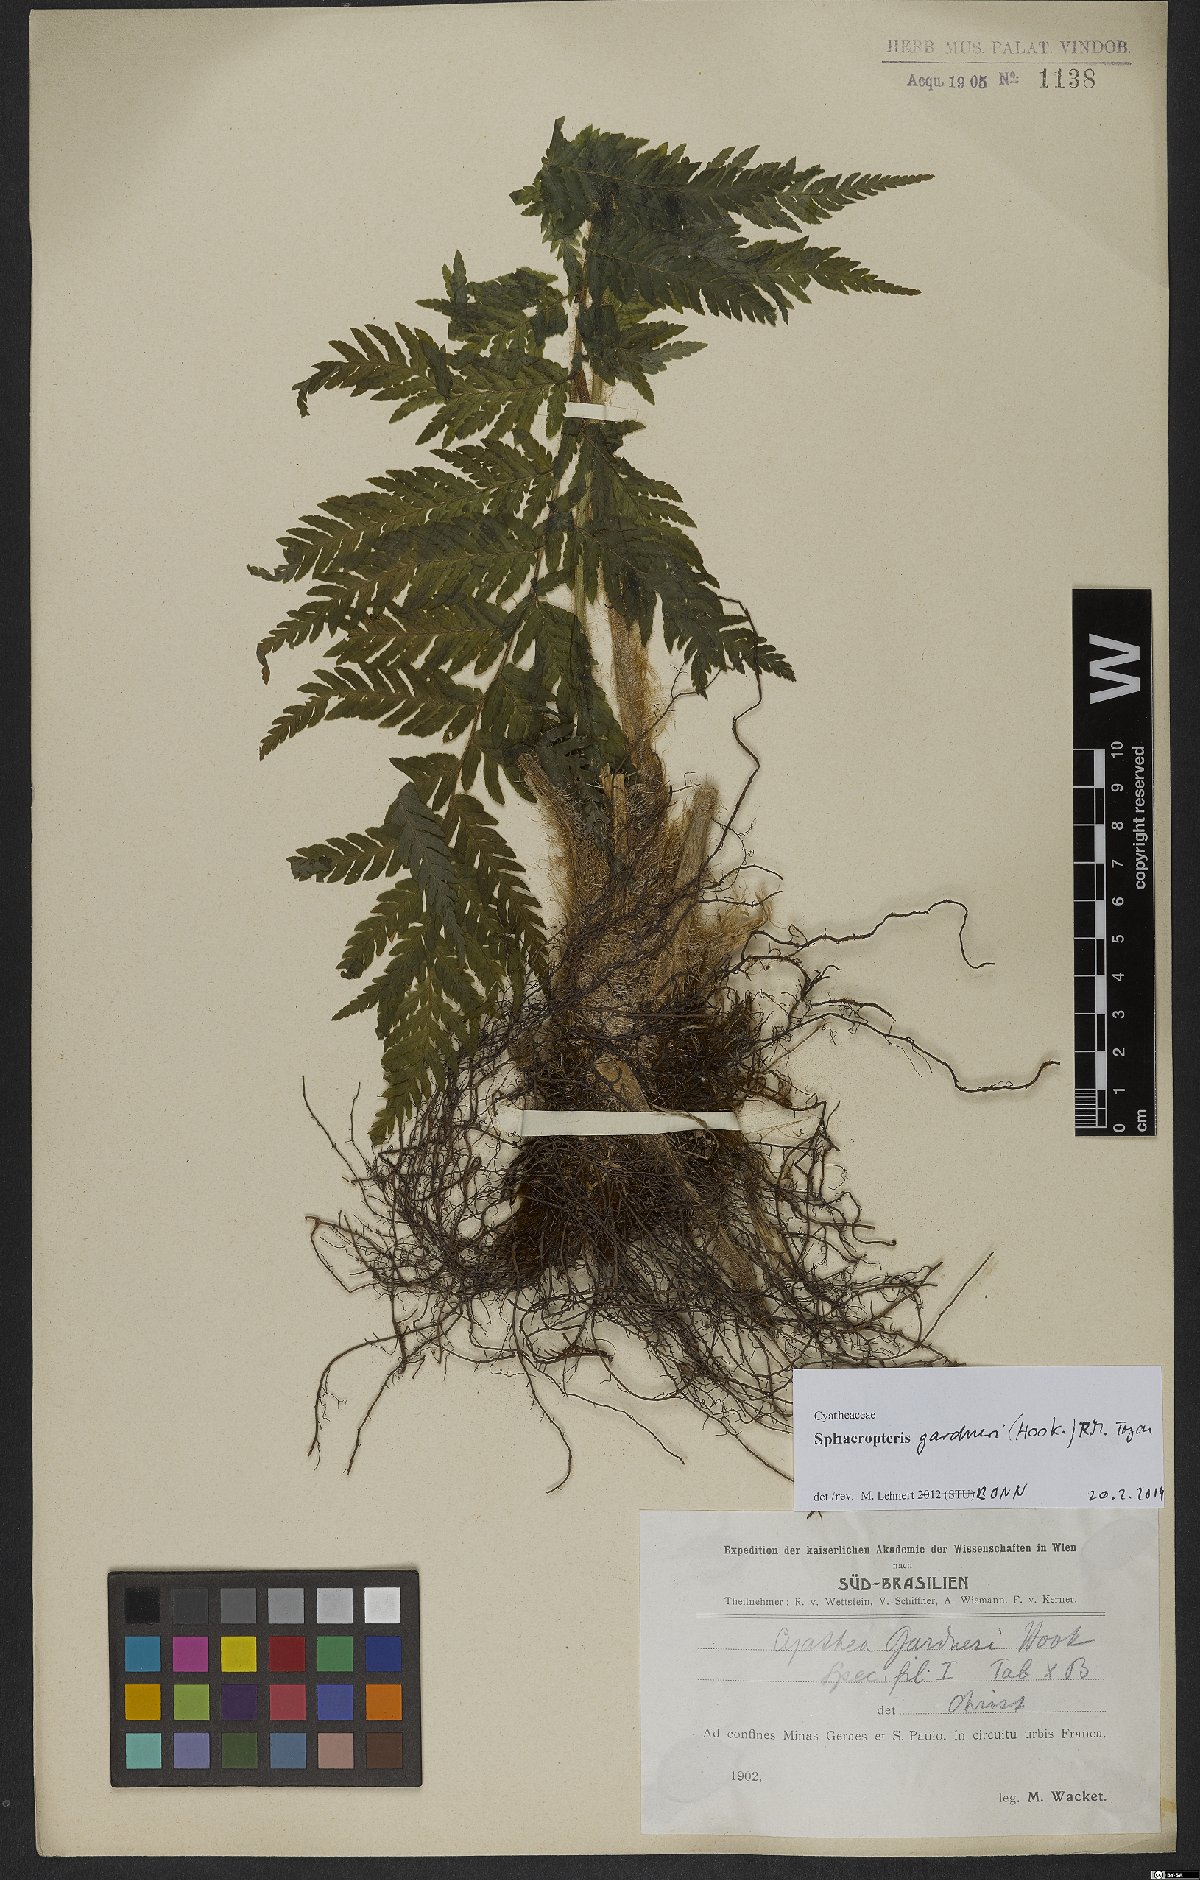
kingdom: Plantae
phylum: Tracheophyta
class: Polypodiopsida
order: Cyatheales
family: Cyatheaceae
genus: Sphaeropteris
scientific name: Sphaeropteris gardneri
